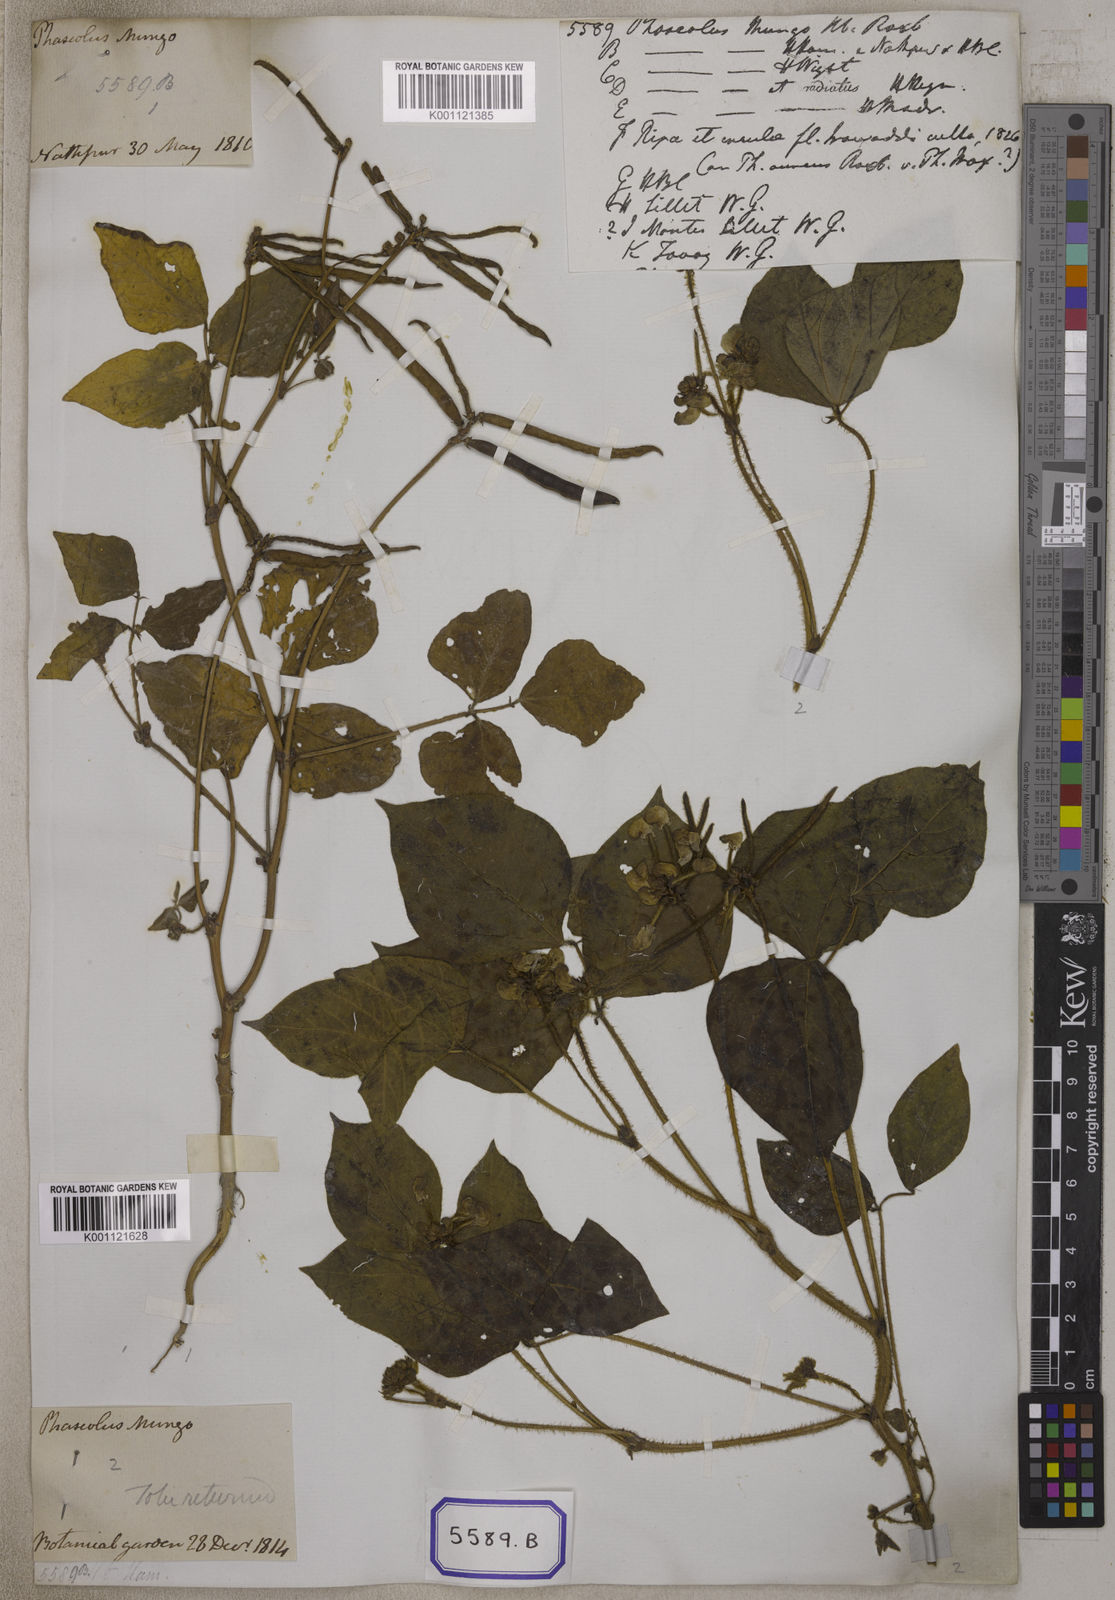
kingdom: Plantae
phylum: Tracheophyta
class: Magnoliopsida
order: Fabales
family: Fabaceae
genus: Phaseolus
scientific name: Phaseolus
